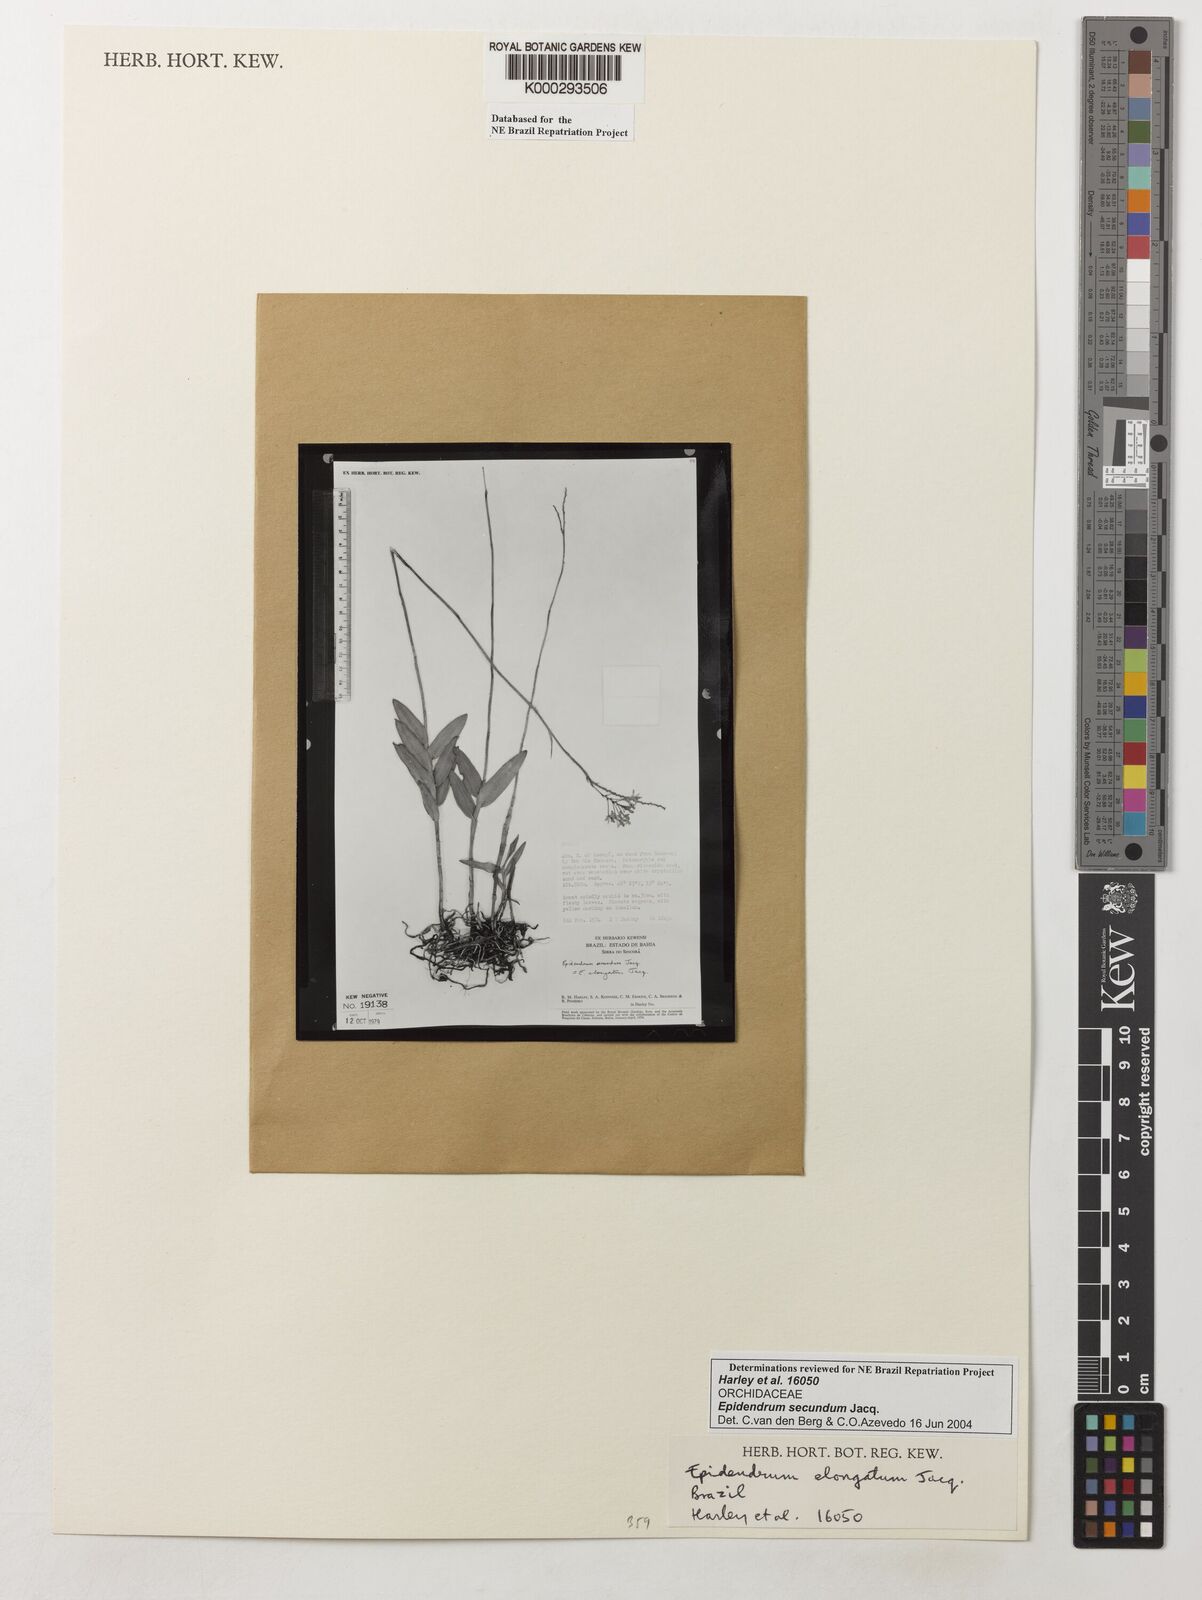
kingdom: Plantae
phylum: Tracheophyta
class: Liliopsida
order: Asparagales
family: Orchidaceae
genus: Epidendrum
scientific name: Epidendrum secundum
